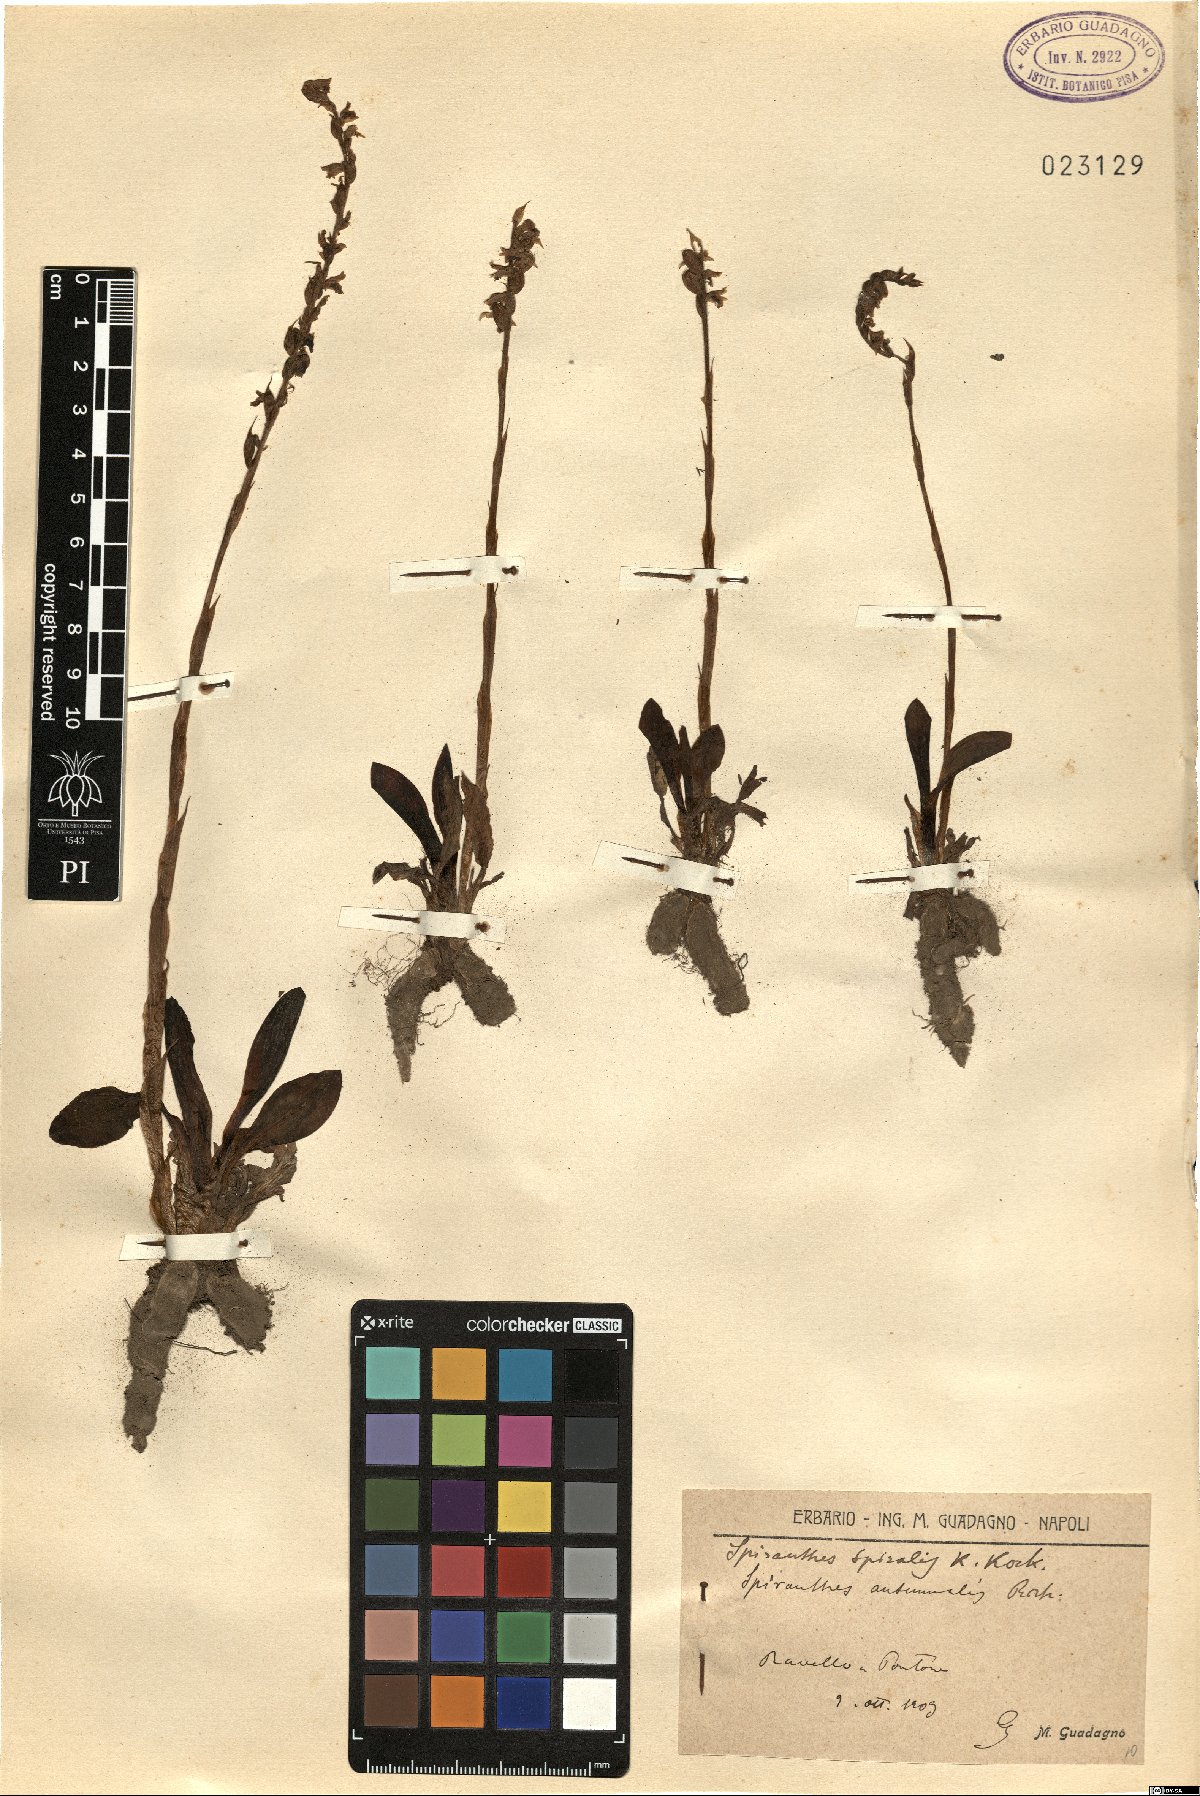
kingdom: Plantae
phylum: Tracheophyta
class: Liliopsida
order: Asparagales
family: Orchidaceae
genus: Spiranthes
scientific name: Spiranthes spiralis
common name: Autumn lady's-tresses
